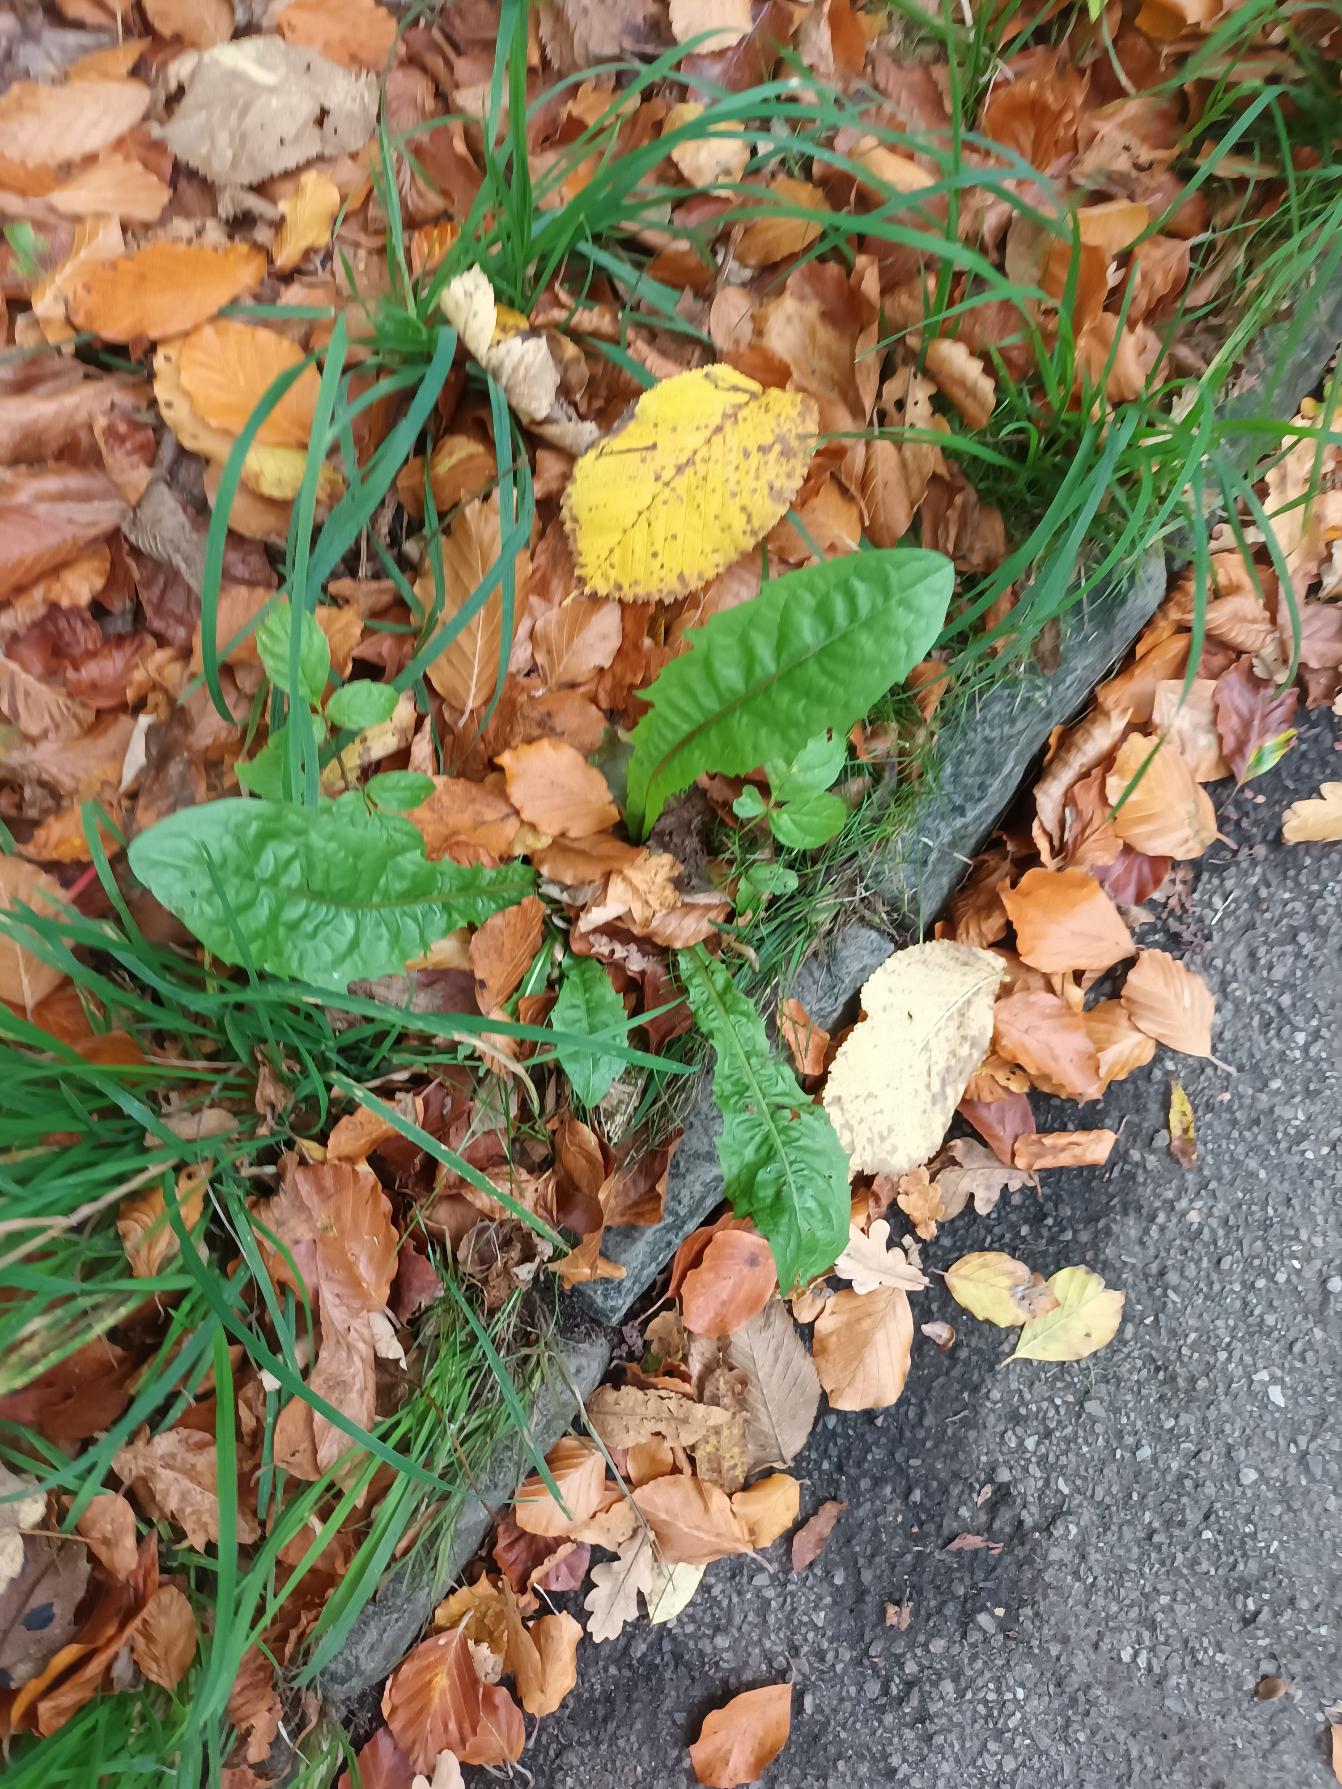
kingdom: Plantae
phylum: Tracheophyta
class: Magnoliopsida
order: Asterales
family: Asteraceae
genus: Taraxacum
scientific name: Taraxacum
